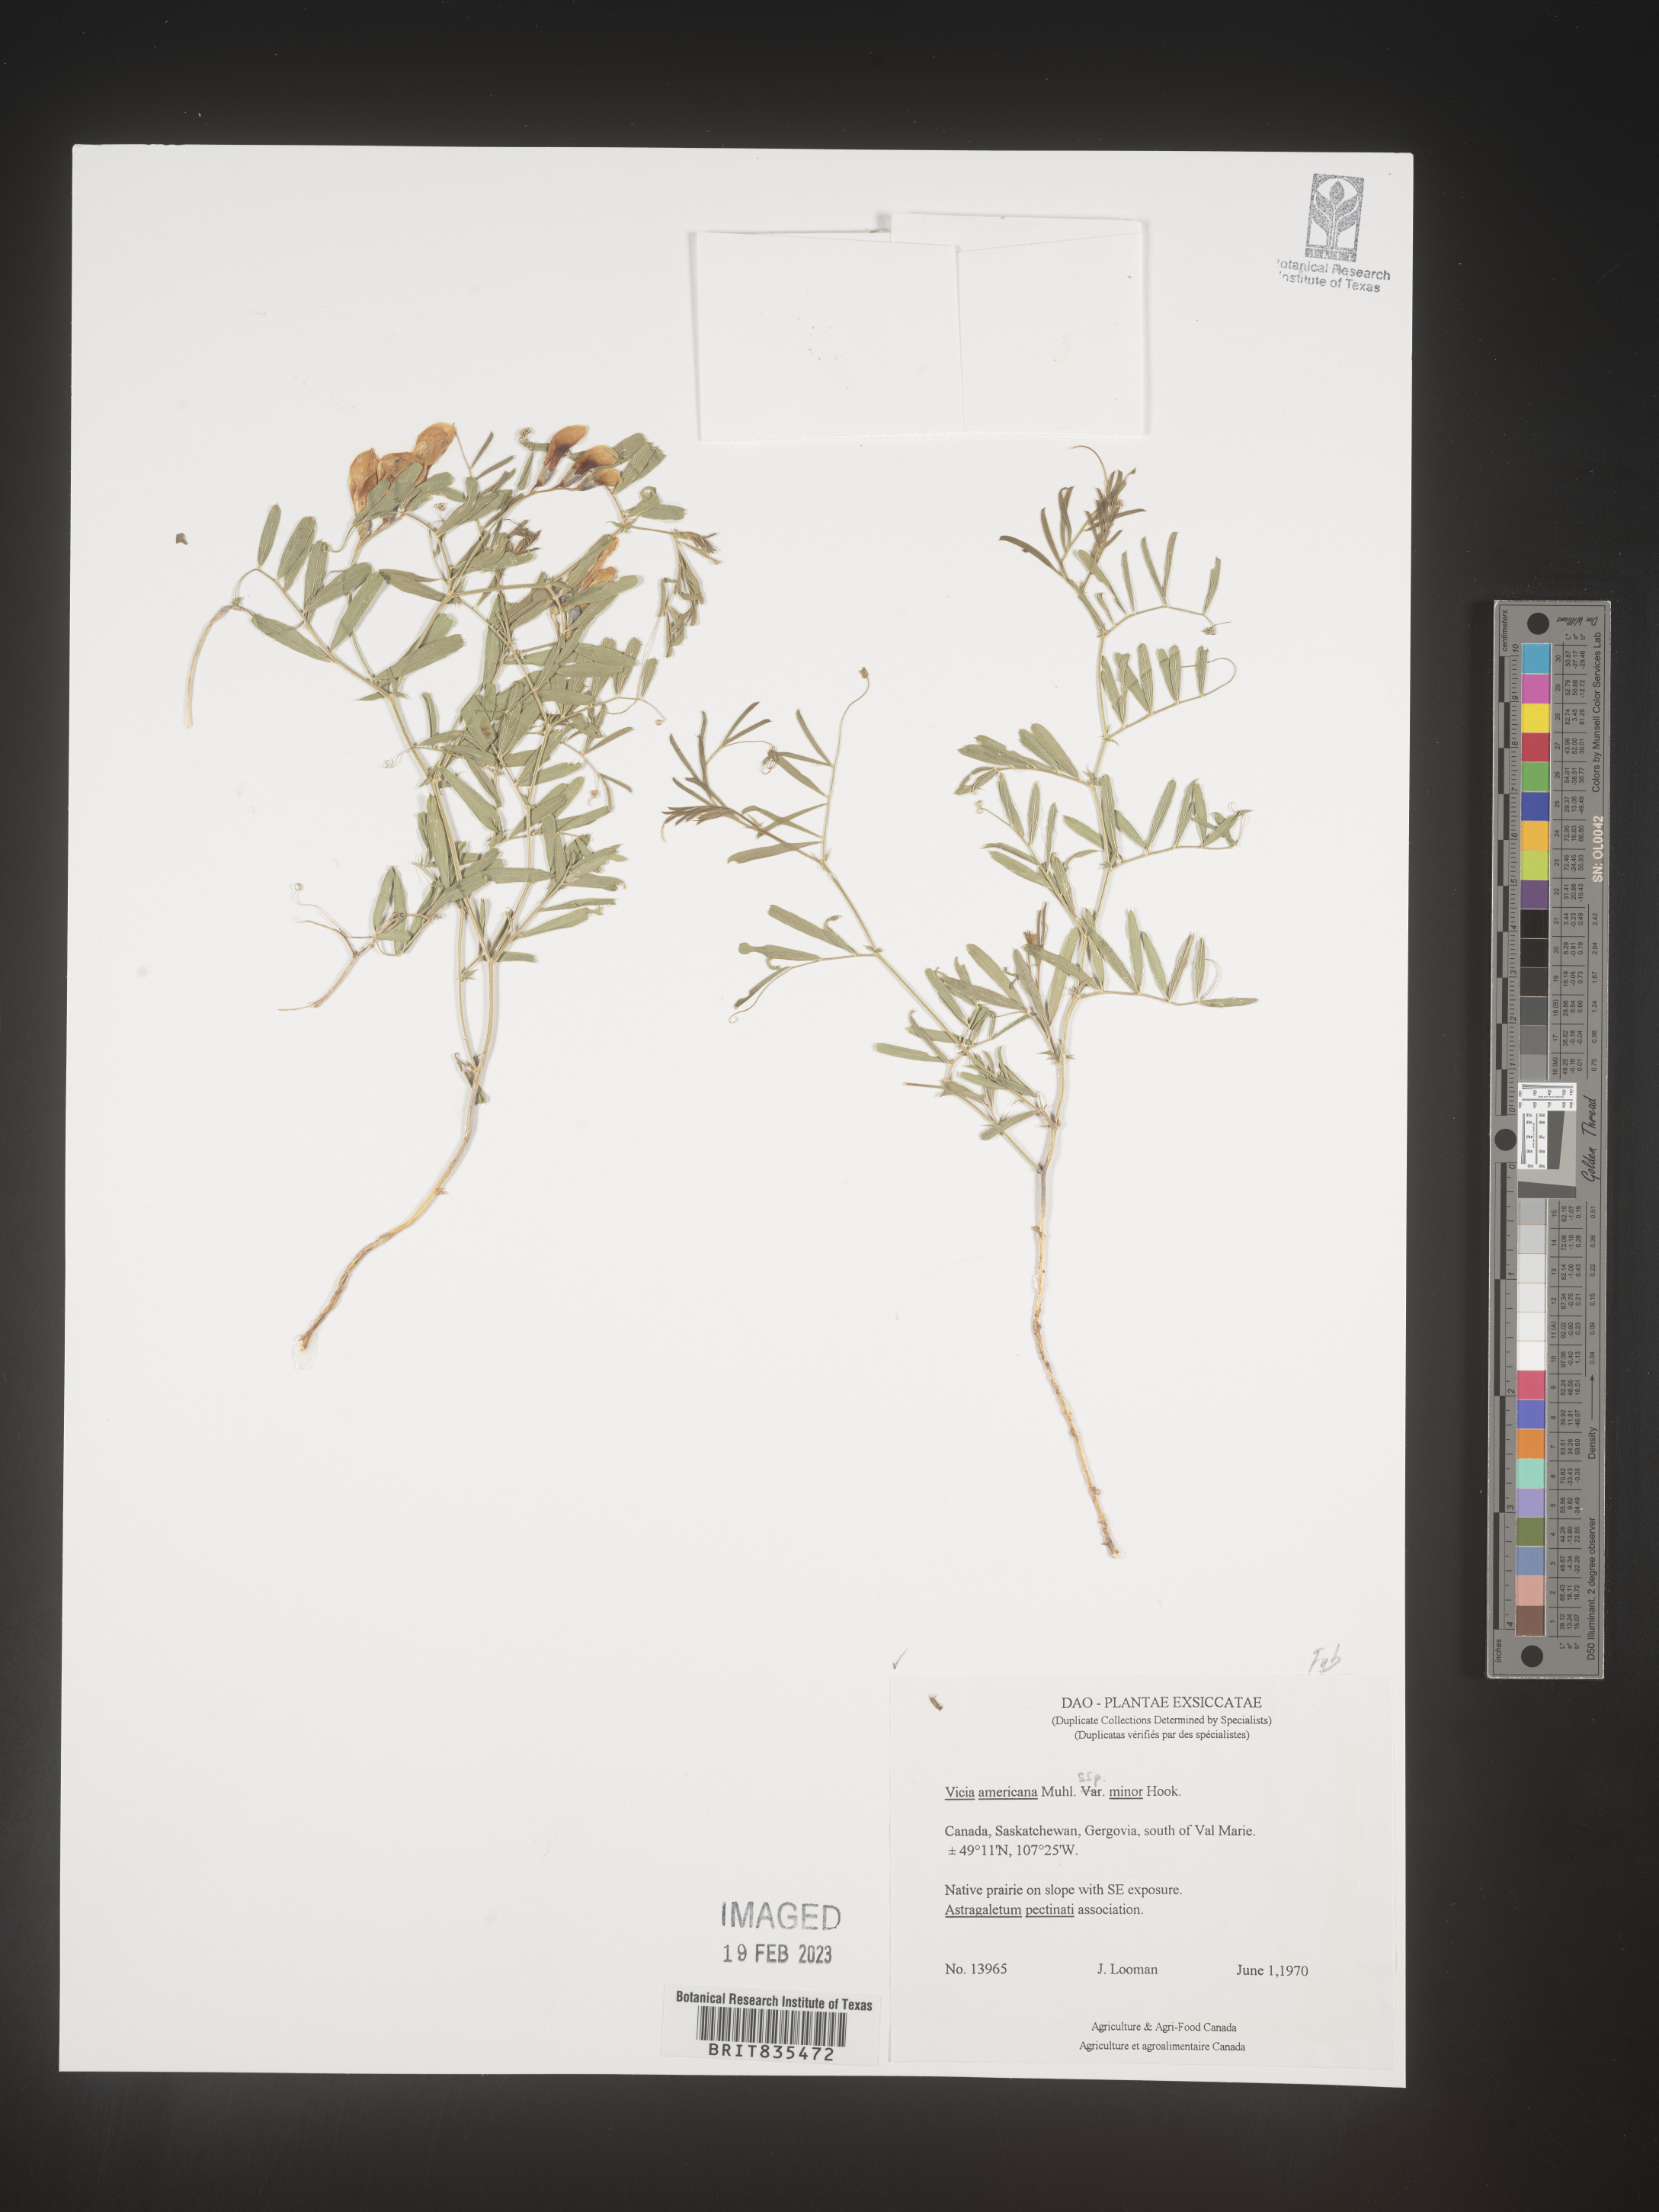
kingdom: Plantae
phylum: Tracheophyta
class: Magnoliopsida
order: Fabales
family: Fabaceae
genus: Vicia
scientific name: Vicia americana
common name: American vetch
